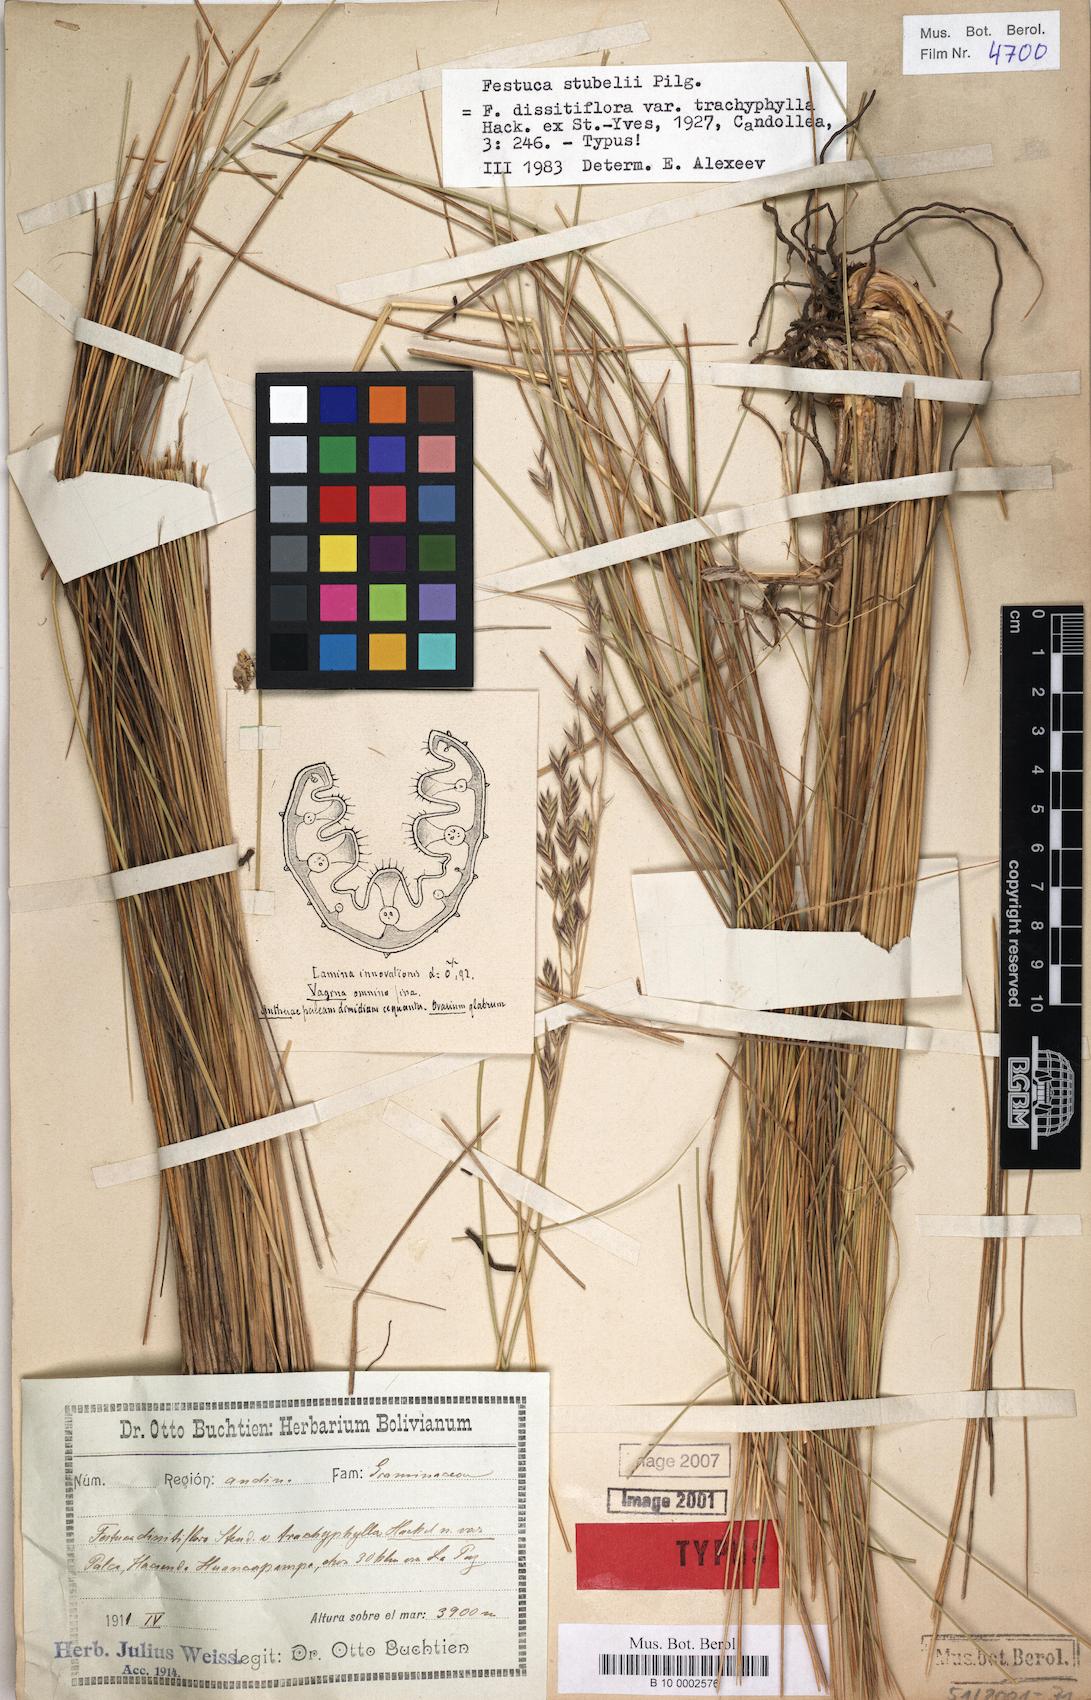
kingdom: Plantae
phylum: Tracheophyta
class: Liliopsida
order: Poales
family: Poaceae
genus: Festuca
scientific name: Festuca scabrifolia
